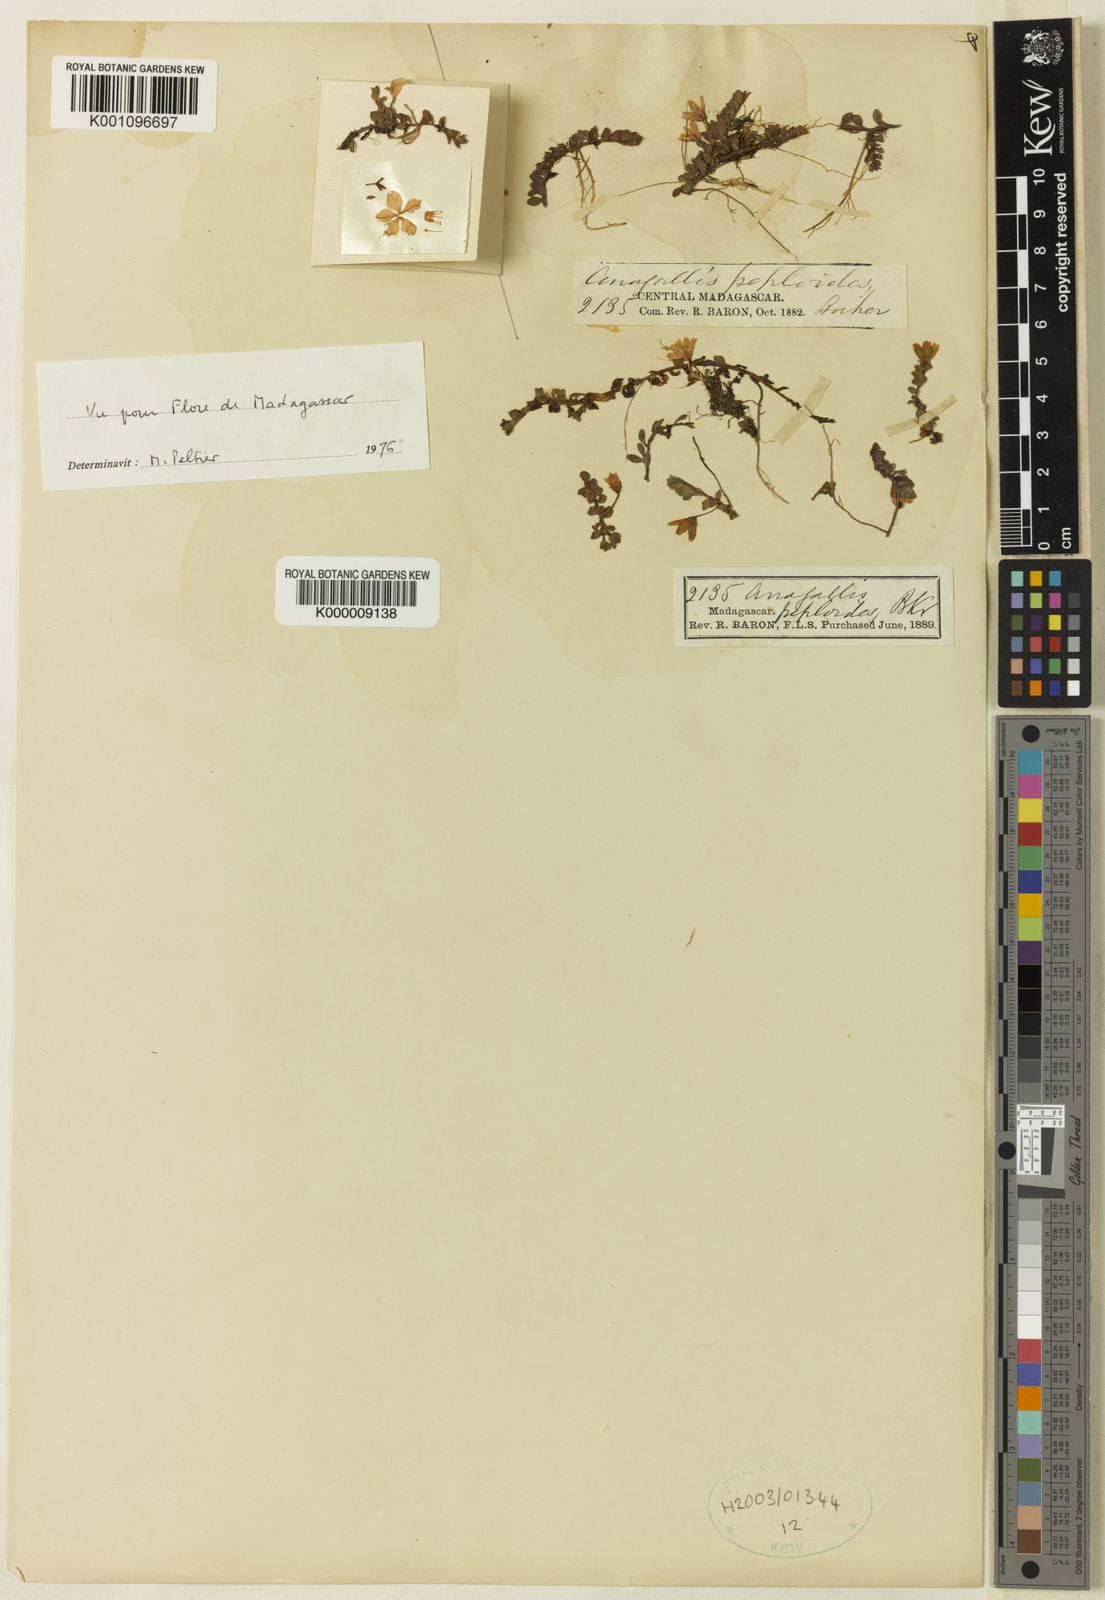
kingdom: Plantae
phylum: Tracheophyta
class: Magnoliopsida
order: Ericales
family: Primulaceae
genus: Lysimachia
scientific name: Lysimachia peploides
